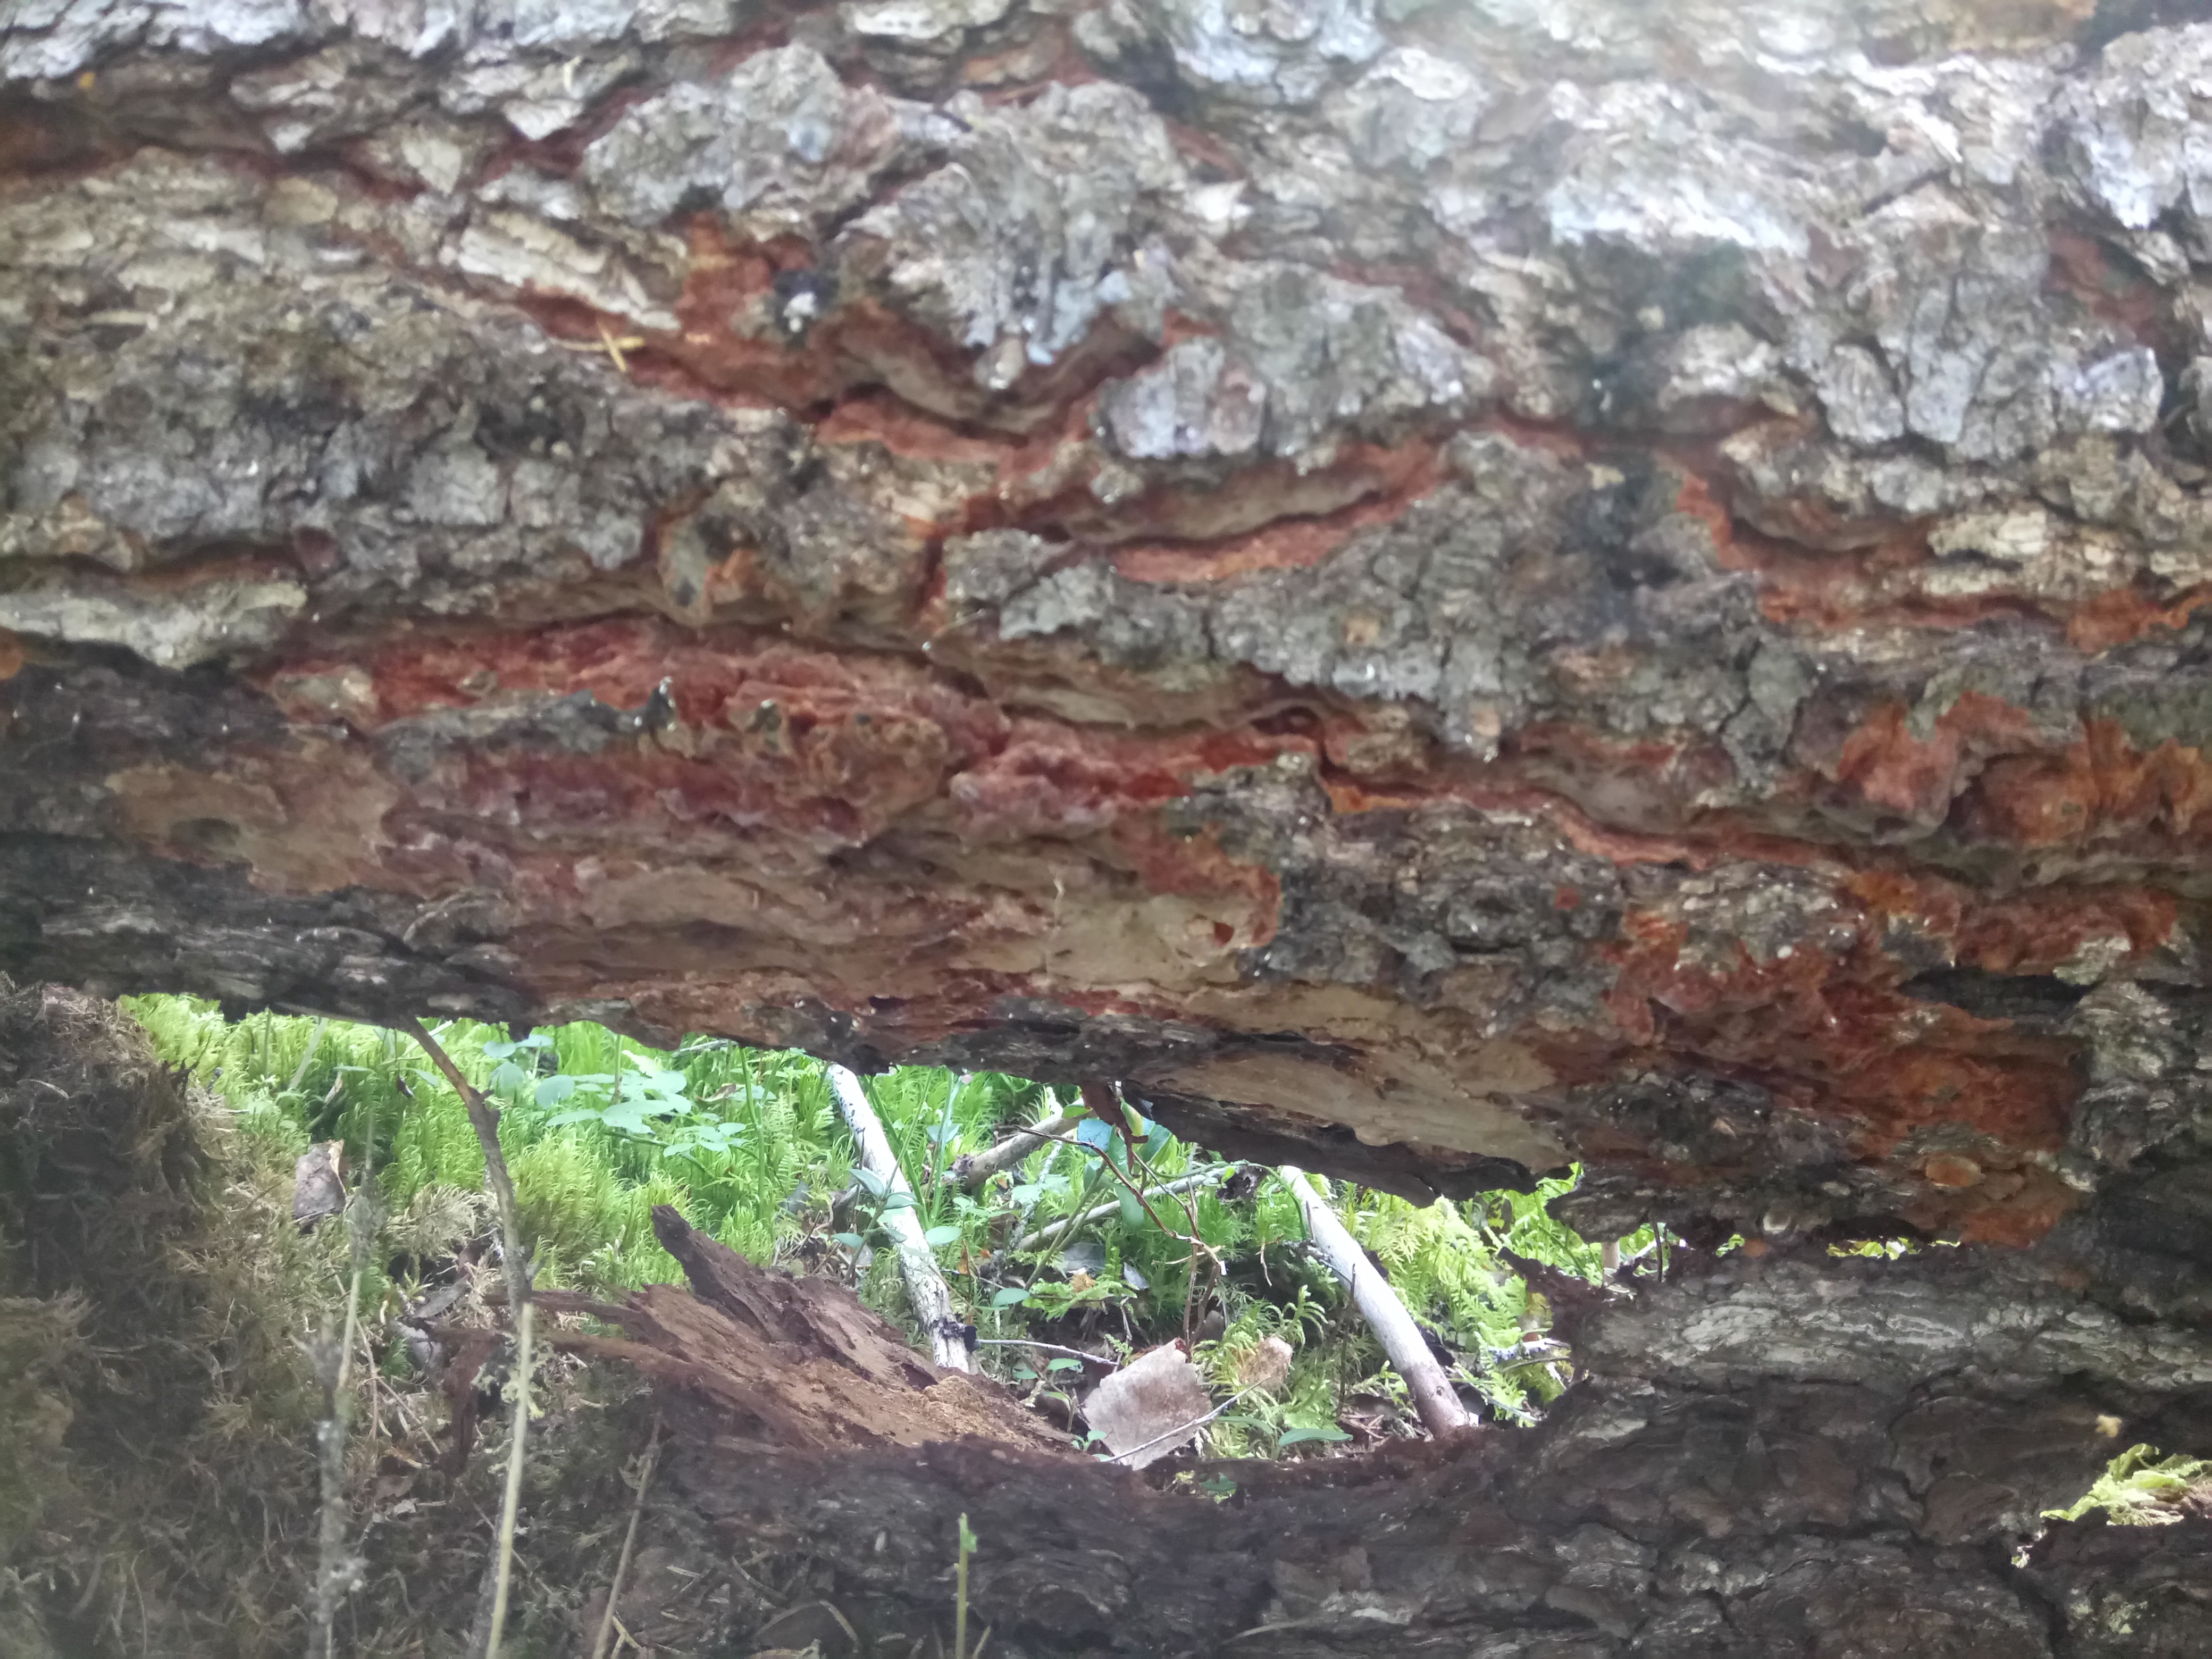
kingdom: Fungi
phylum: Basidiomycota
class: Agaricomycetes
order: Hymenochaetales
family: Hymenochaetaceae
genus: Phellinidium
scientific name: Phellinidium ferrugineofuscum
